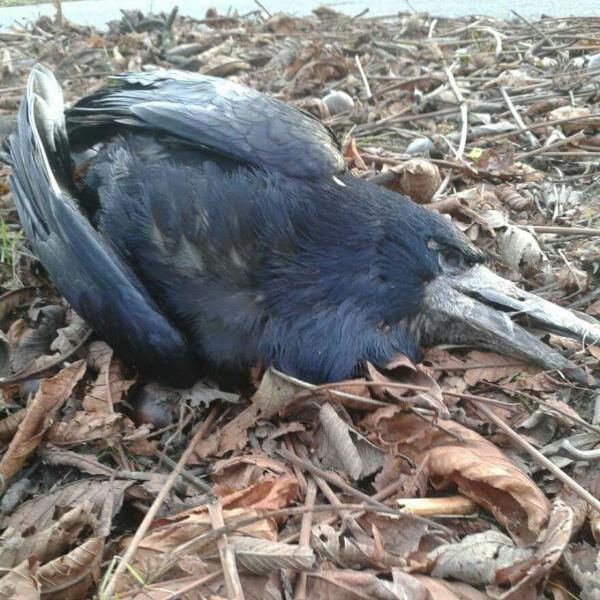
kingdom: Animalia
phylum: Chordata
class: Aves
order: Passeriformes
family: Corvidae
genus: Corvus
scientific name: Corvus frugilegus
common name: Rook
